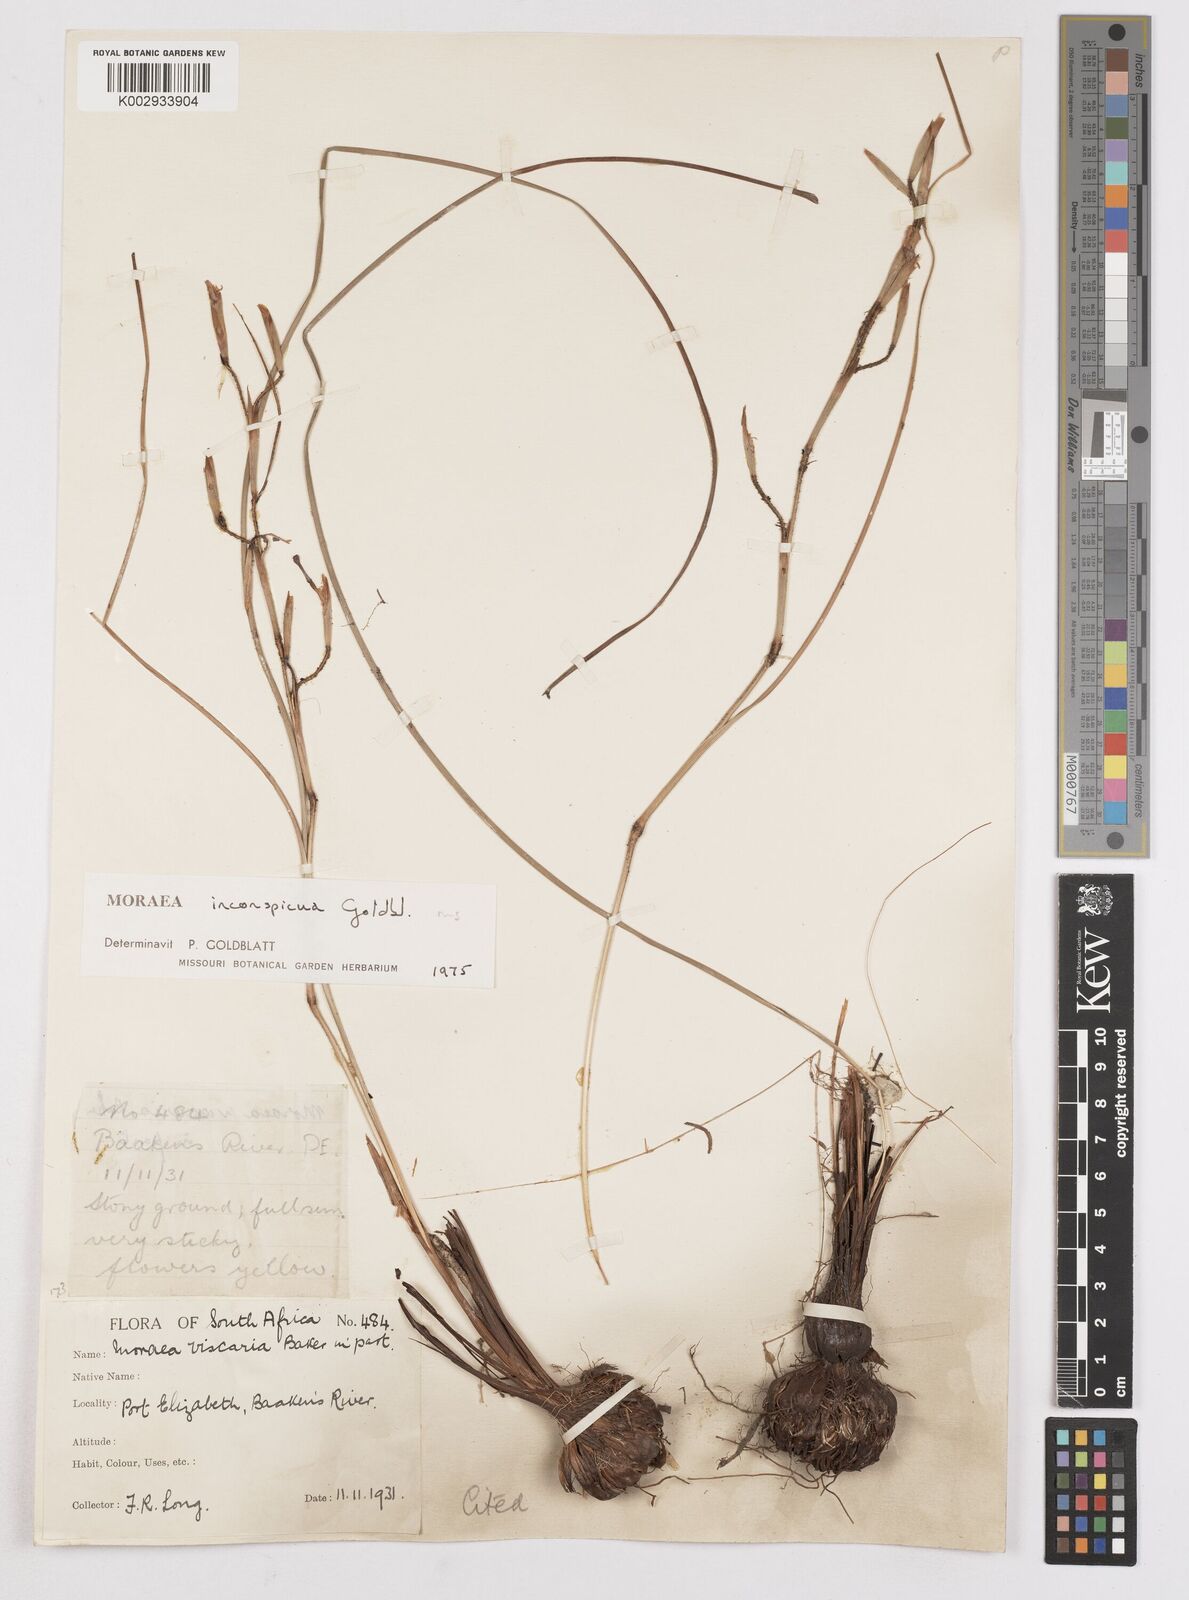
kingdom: Plantae
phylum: Tracheophyta
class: Liliopsida
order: Asparagales
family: Iridaceae
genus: Moraea
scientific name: Moraea inconspicua
